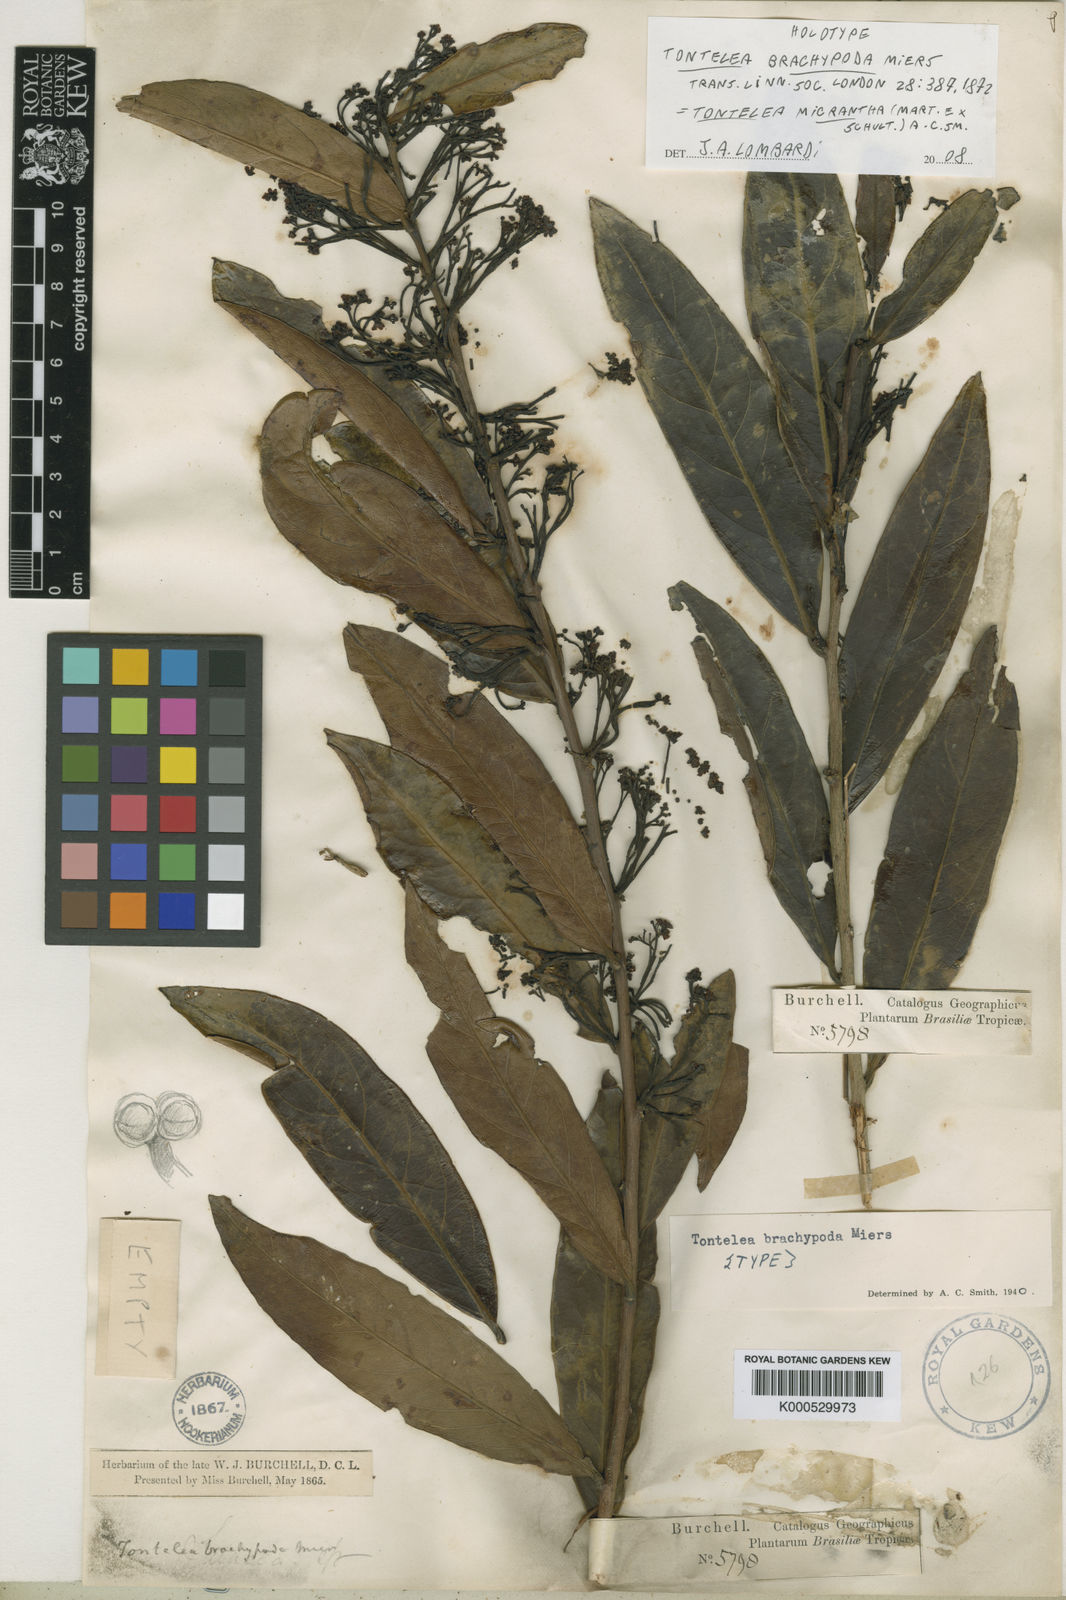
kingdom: Plantae
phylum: Tracheophyta
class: Magnoliopsida
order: Celastrales
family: Celastraceae
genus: Tontelea
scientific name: Tontelea micrantha
